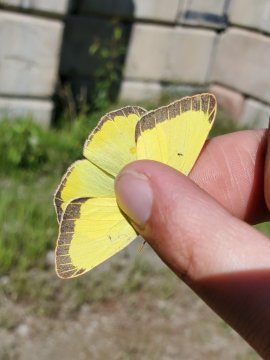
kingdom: Animalia
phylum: Arthropoda
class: Insecta
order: Lepidoptera
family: Pieridae
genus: Colias
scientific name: Colias
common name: Clouded Yellows
